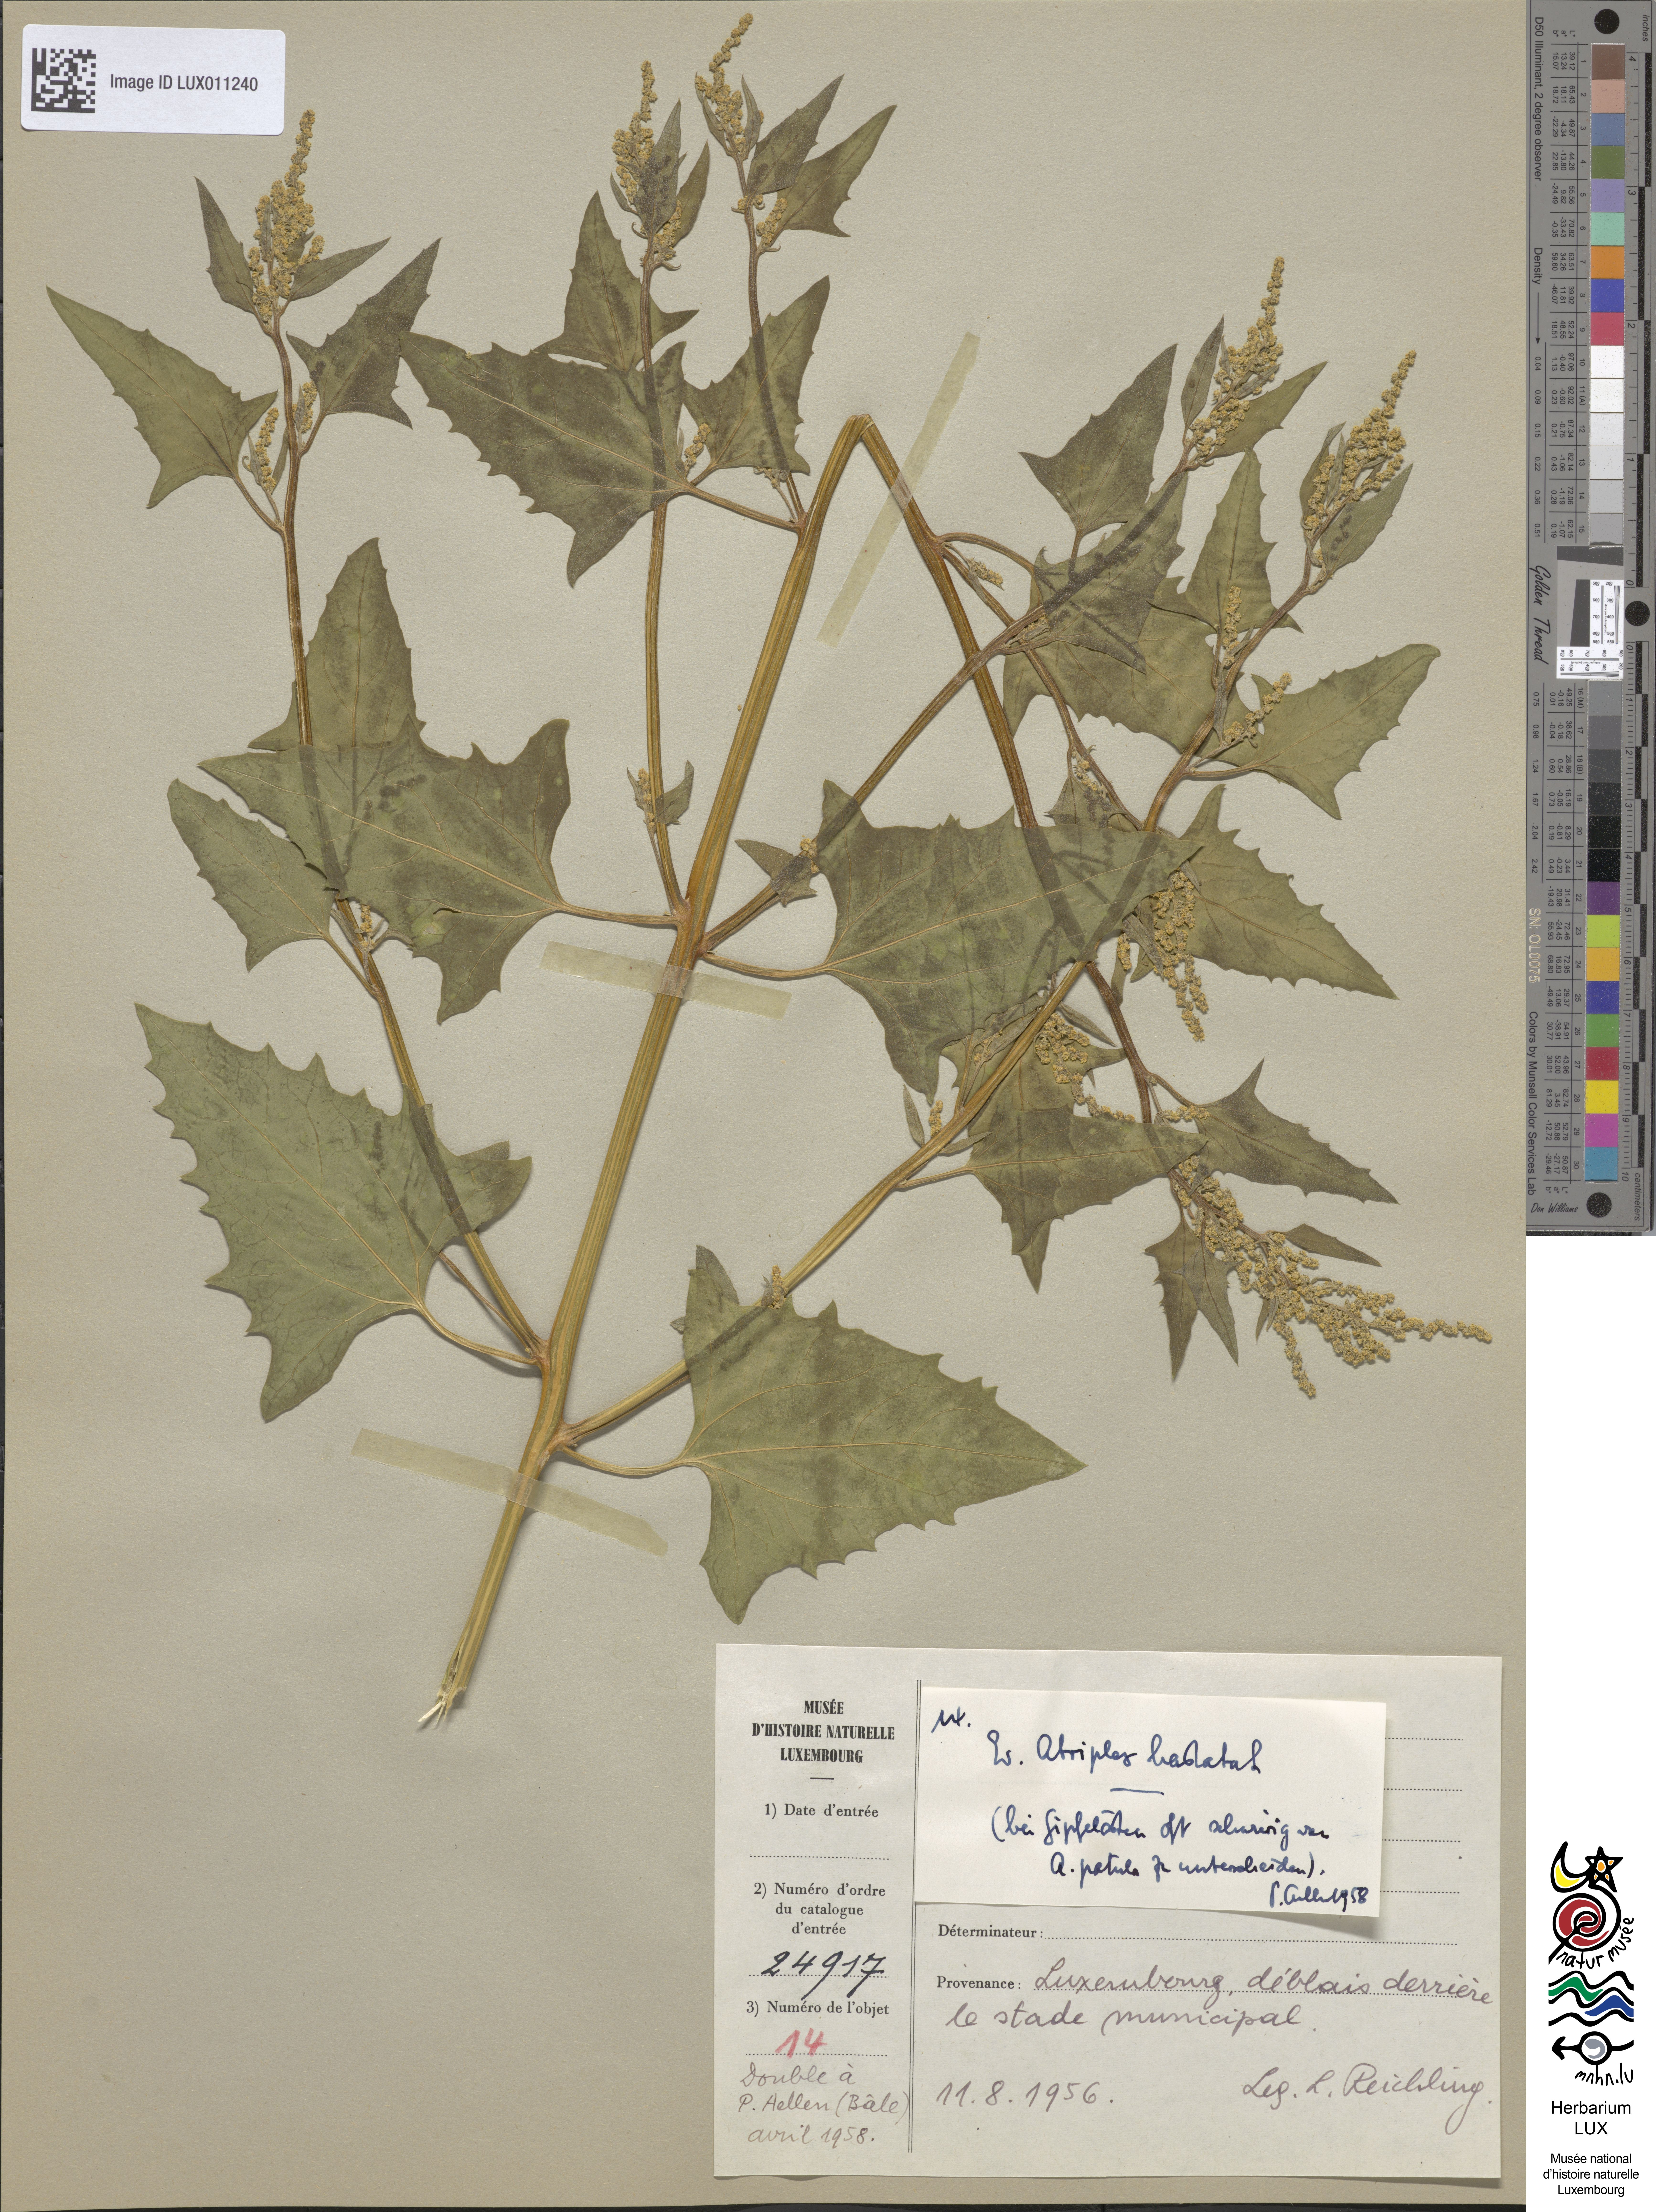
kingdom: Plantae
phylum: Tracheophyta
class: Magnoliopsida
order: Caryophyllales
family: Amaranthaceae
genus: Atriplex
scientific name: Atriplex calotheca
